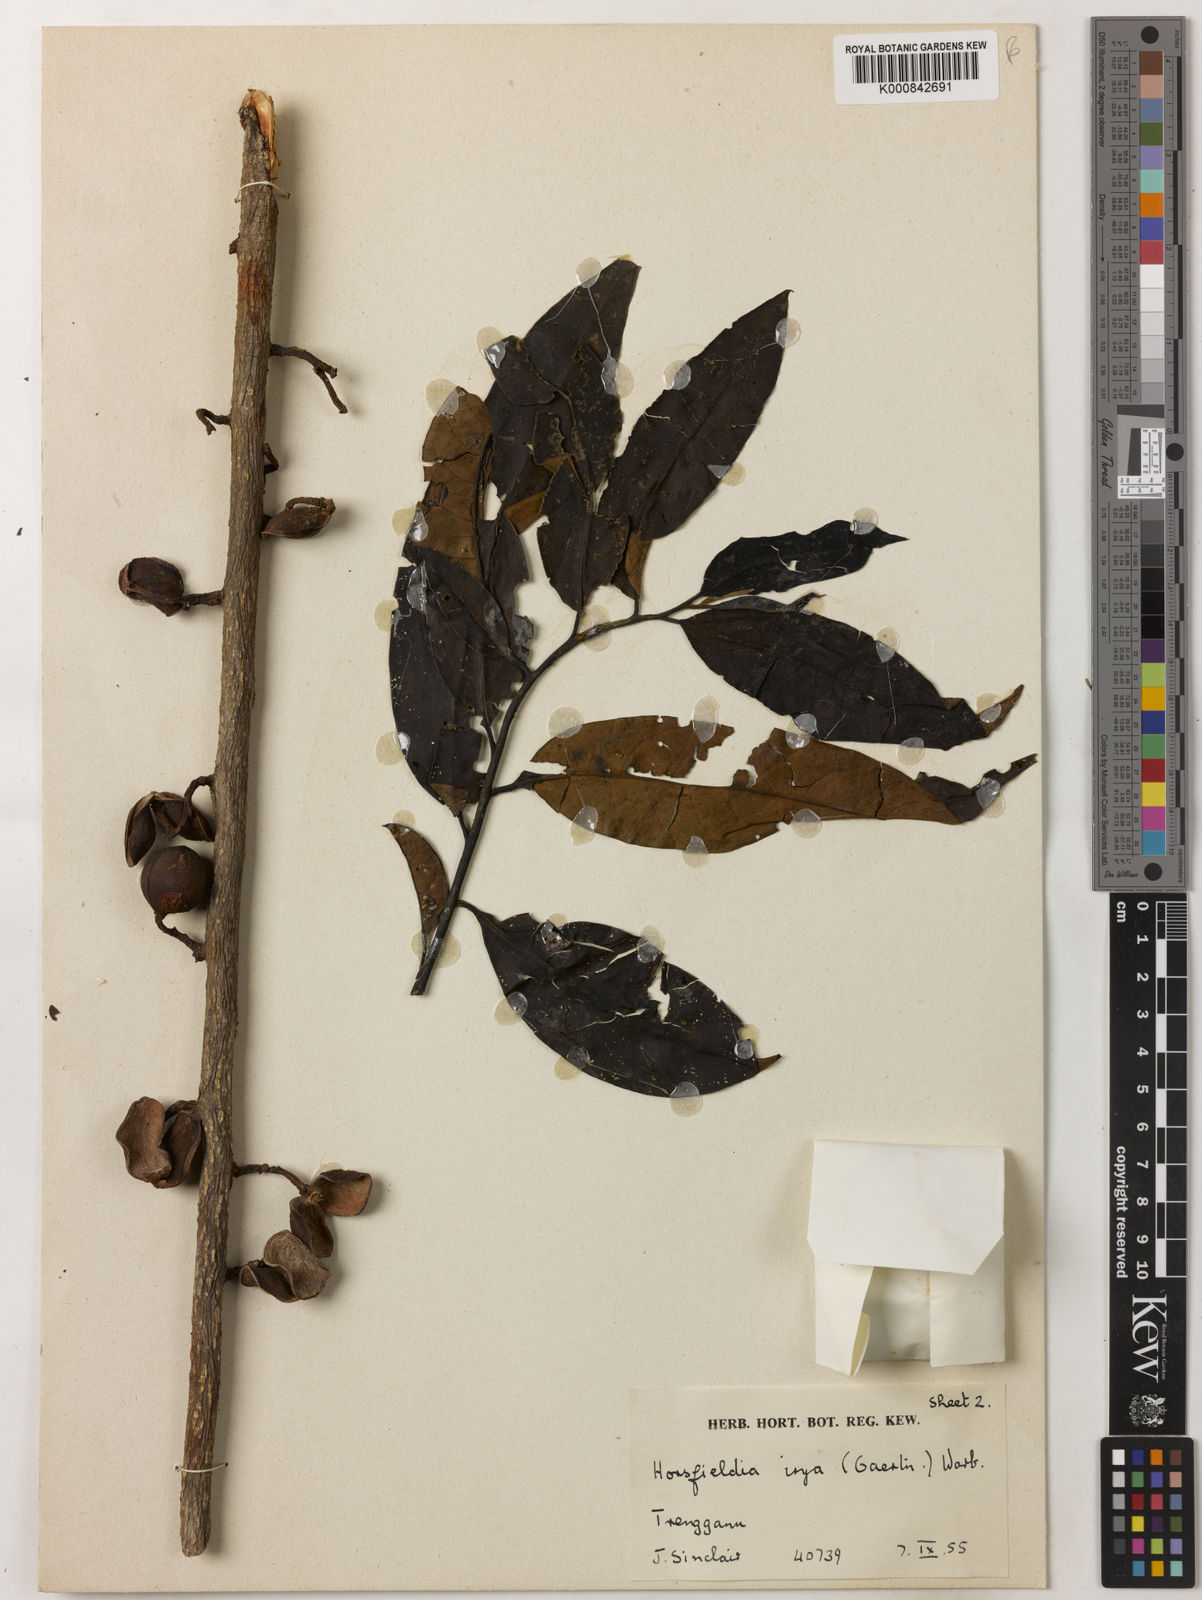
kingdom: Plantae
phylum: Tracheophyta
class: Magnoliopsida
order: Magnoliales
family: Myristicaceae
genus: Horsfieldia
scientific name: Horsfieldia irya
